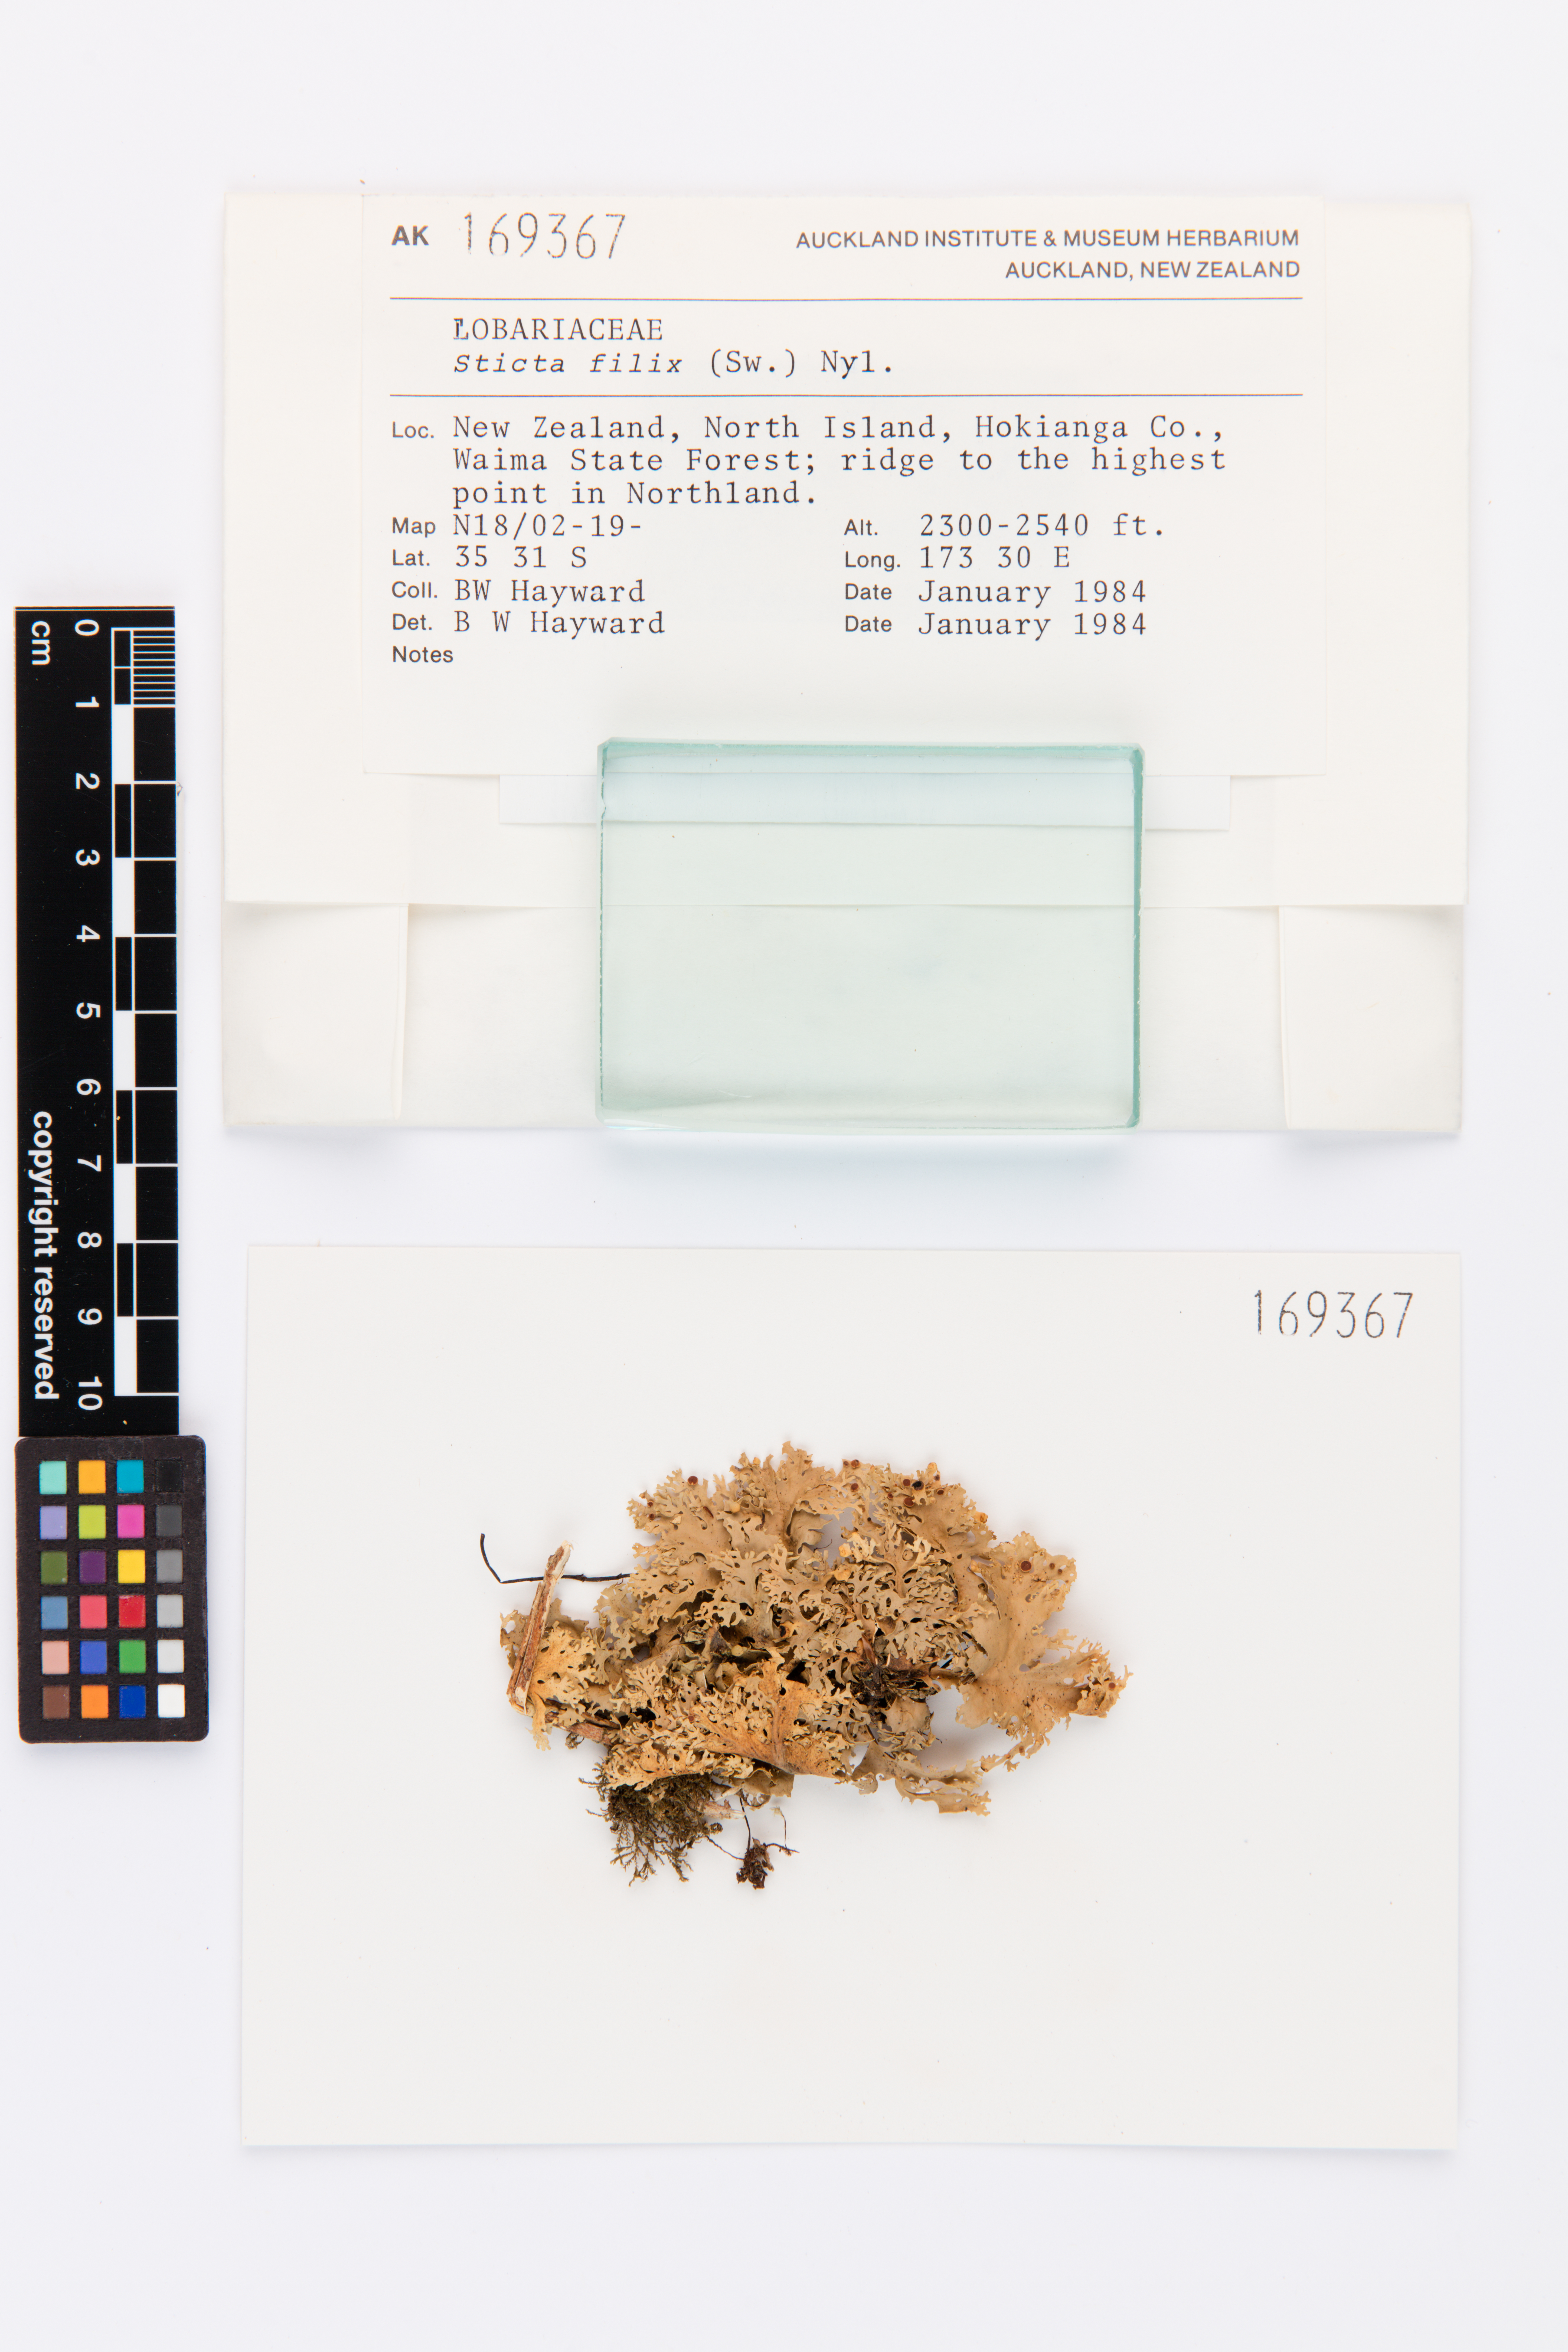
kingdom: Fungi
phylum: Ascomycota
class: Lecanoromycetes
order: Peltigerales
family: Lobariaceae
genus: Sticta
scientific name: Sticta filix
